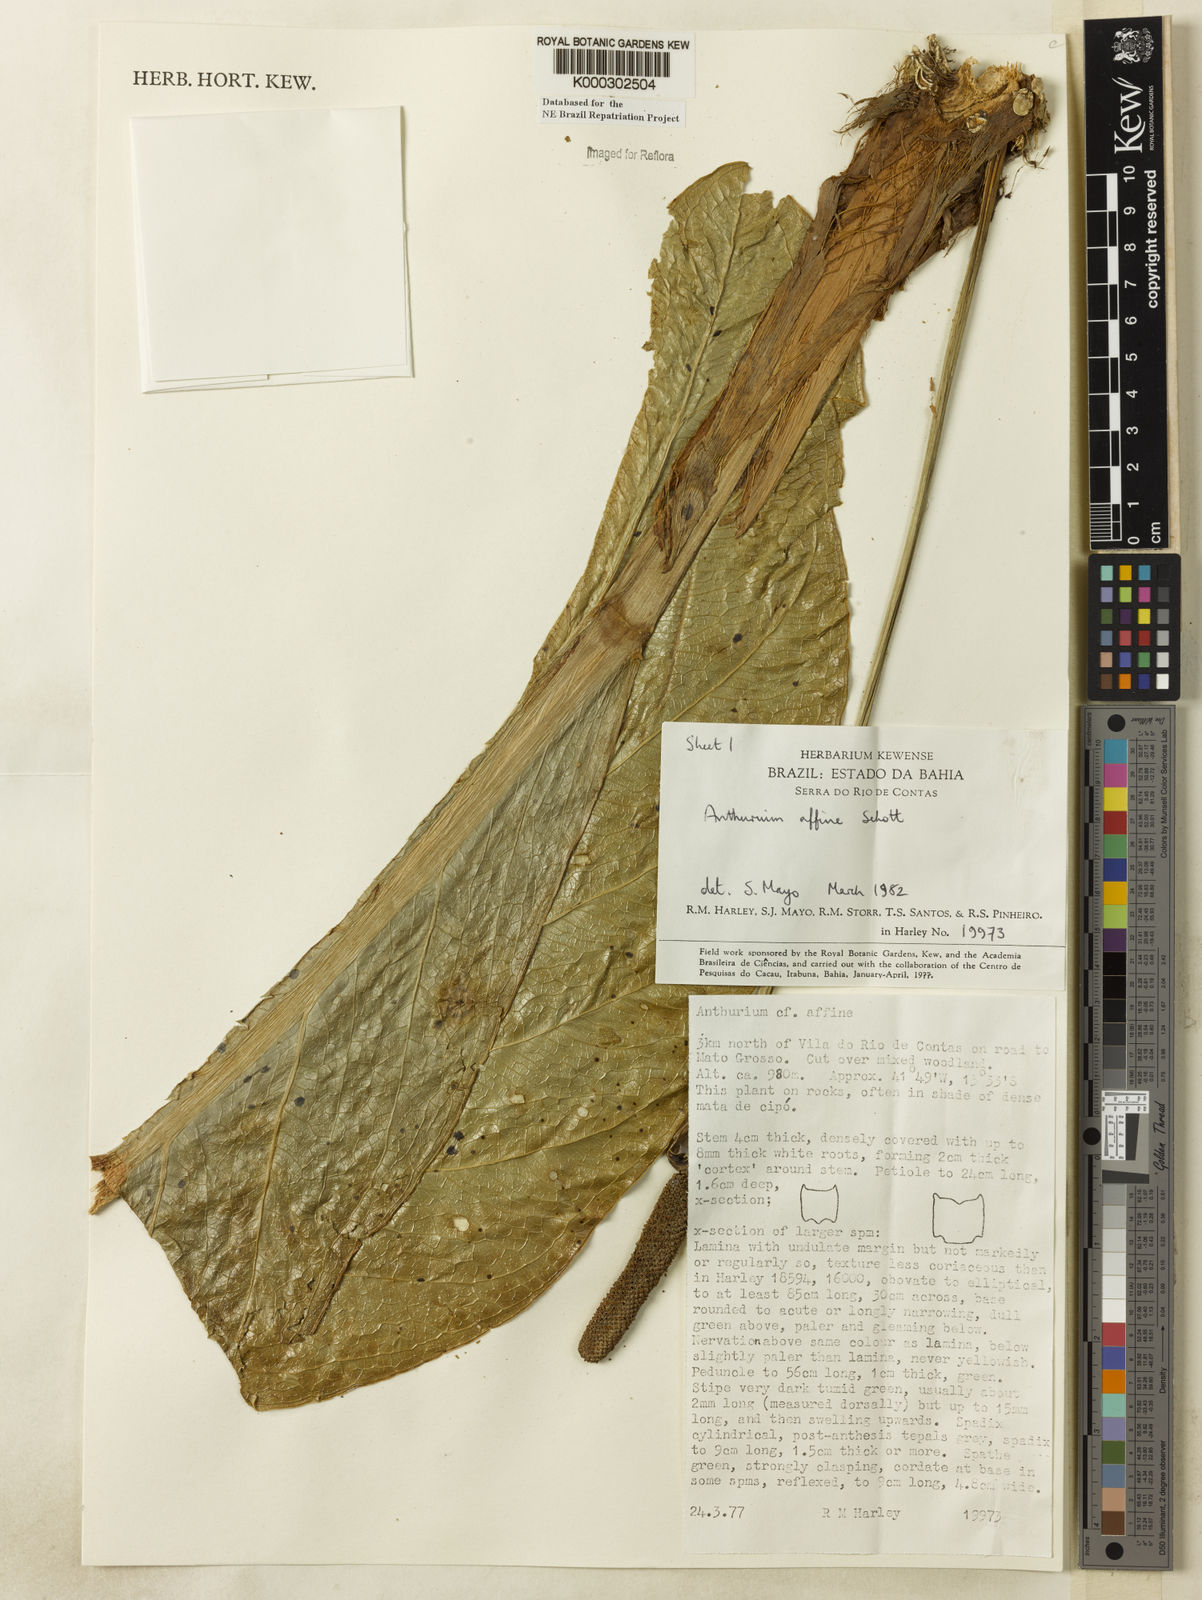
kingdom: Plantae
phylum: Tracheophyta
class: Liliopsida
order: Alismatales
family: Araceae
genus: Anthurium
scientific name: Anthurium affine
